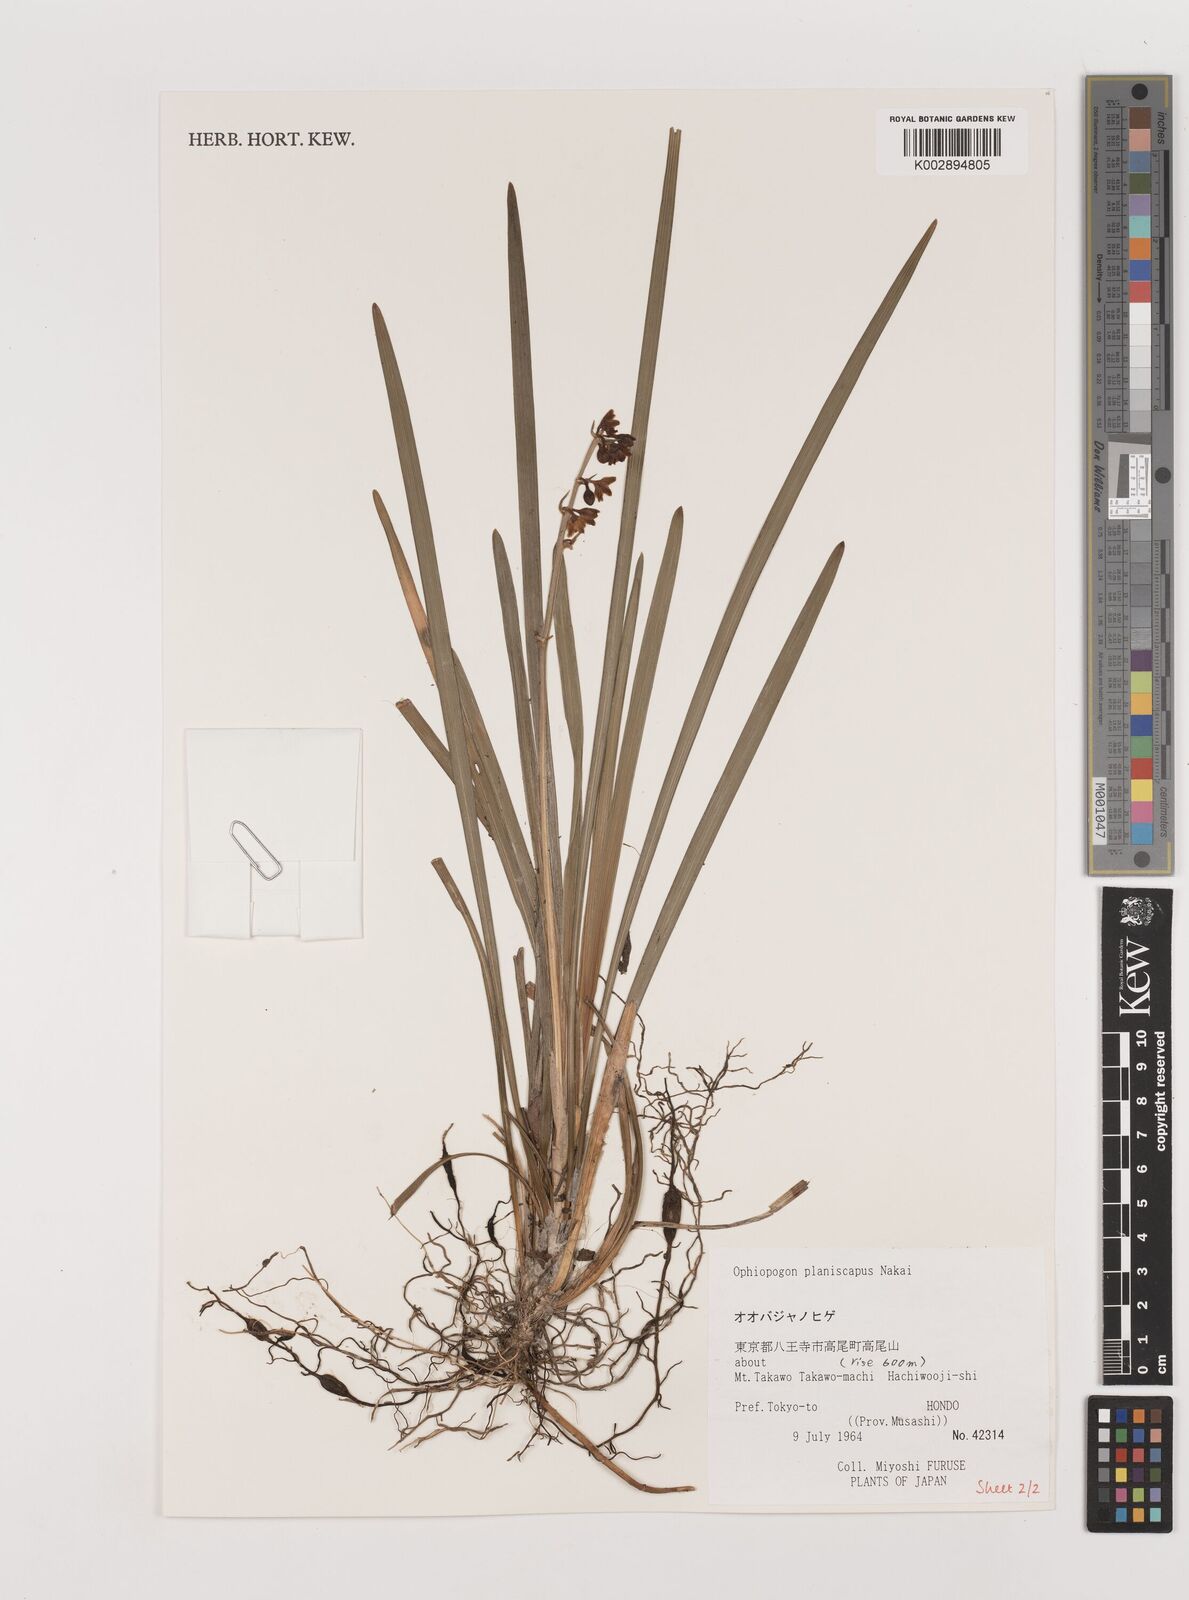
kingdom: Plantae
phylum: Tracheophyta
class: Liliopsida
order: Asparagales
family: Asparagaceae
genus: Ophiopogon
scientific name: Ophiopogon planiscapus
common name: Black mondo
